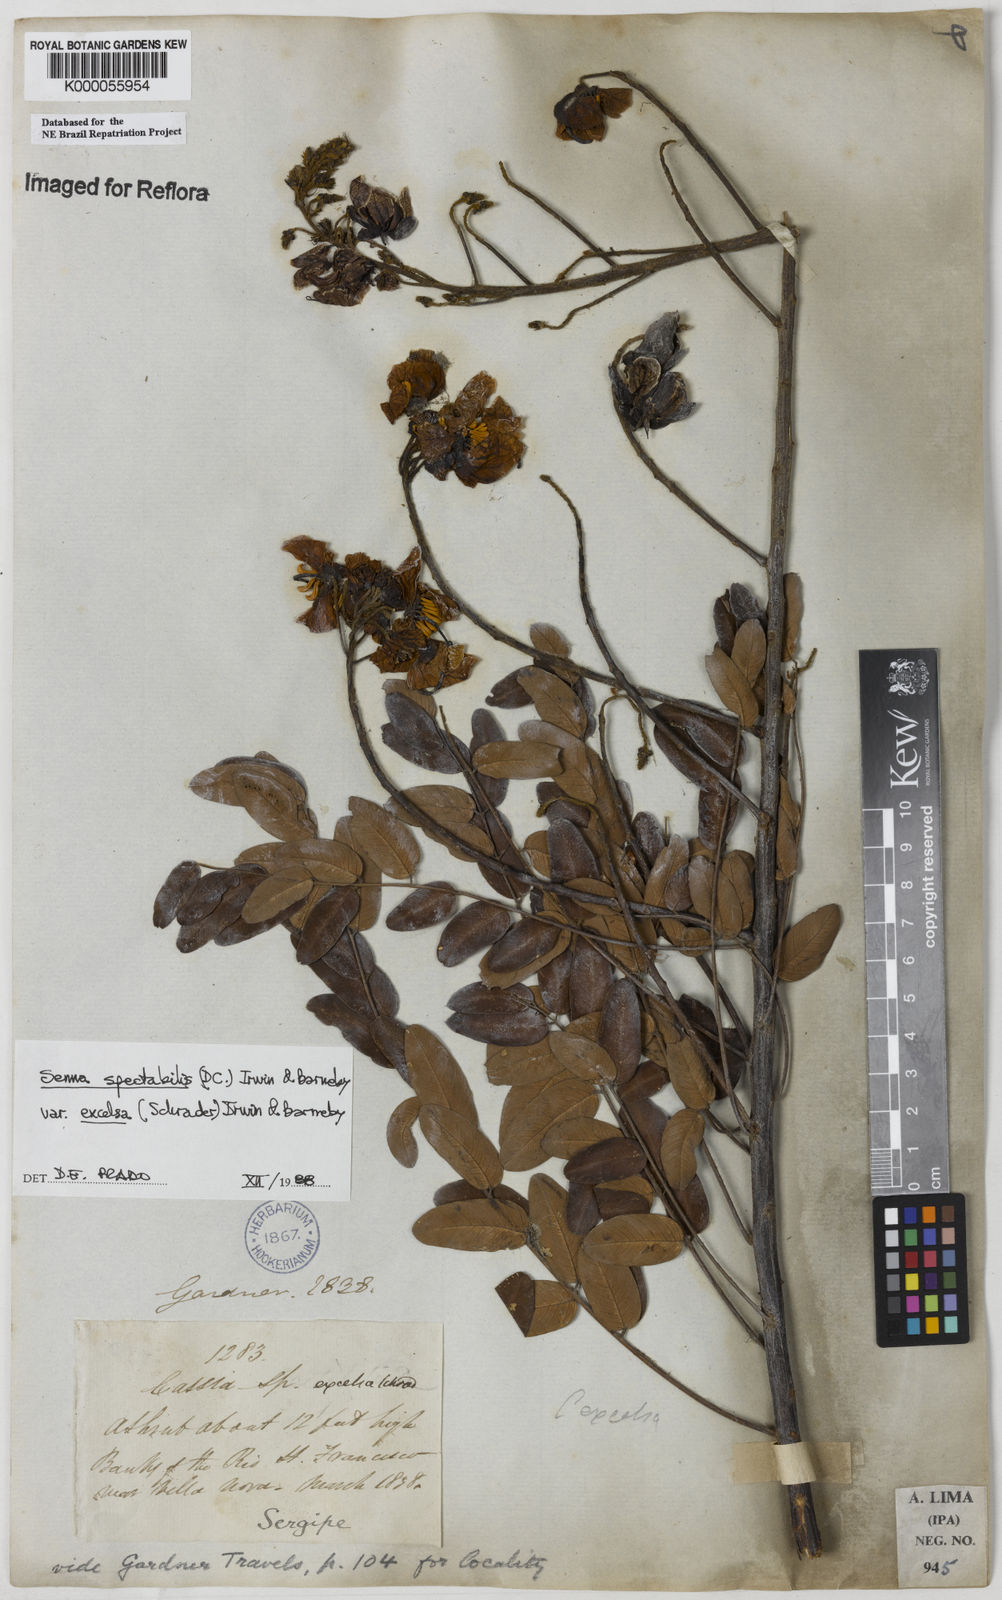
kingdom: Plantae
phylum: Tracheophyta
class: Magnoliopsida
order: Fabales
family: Fabaceae
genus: Senna
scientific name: Senna spectabilis
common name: Casia amarilla
